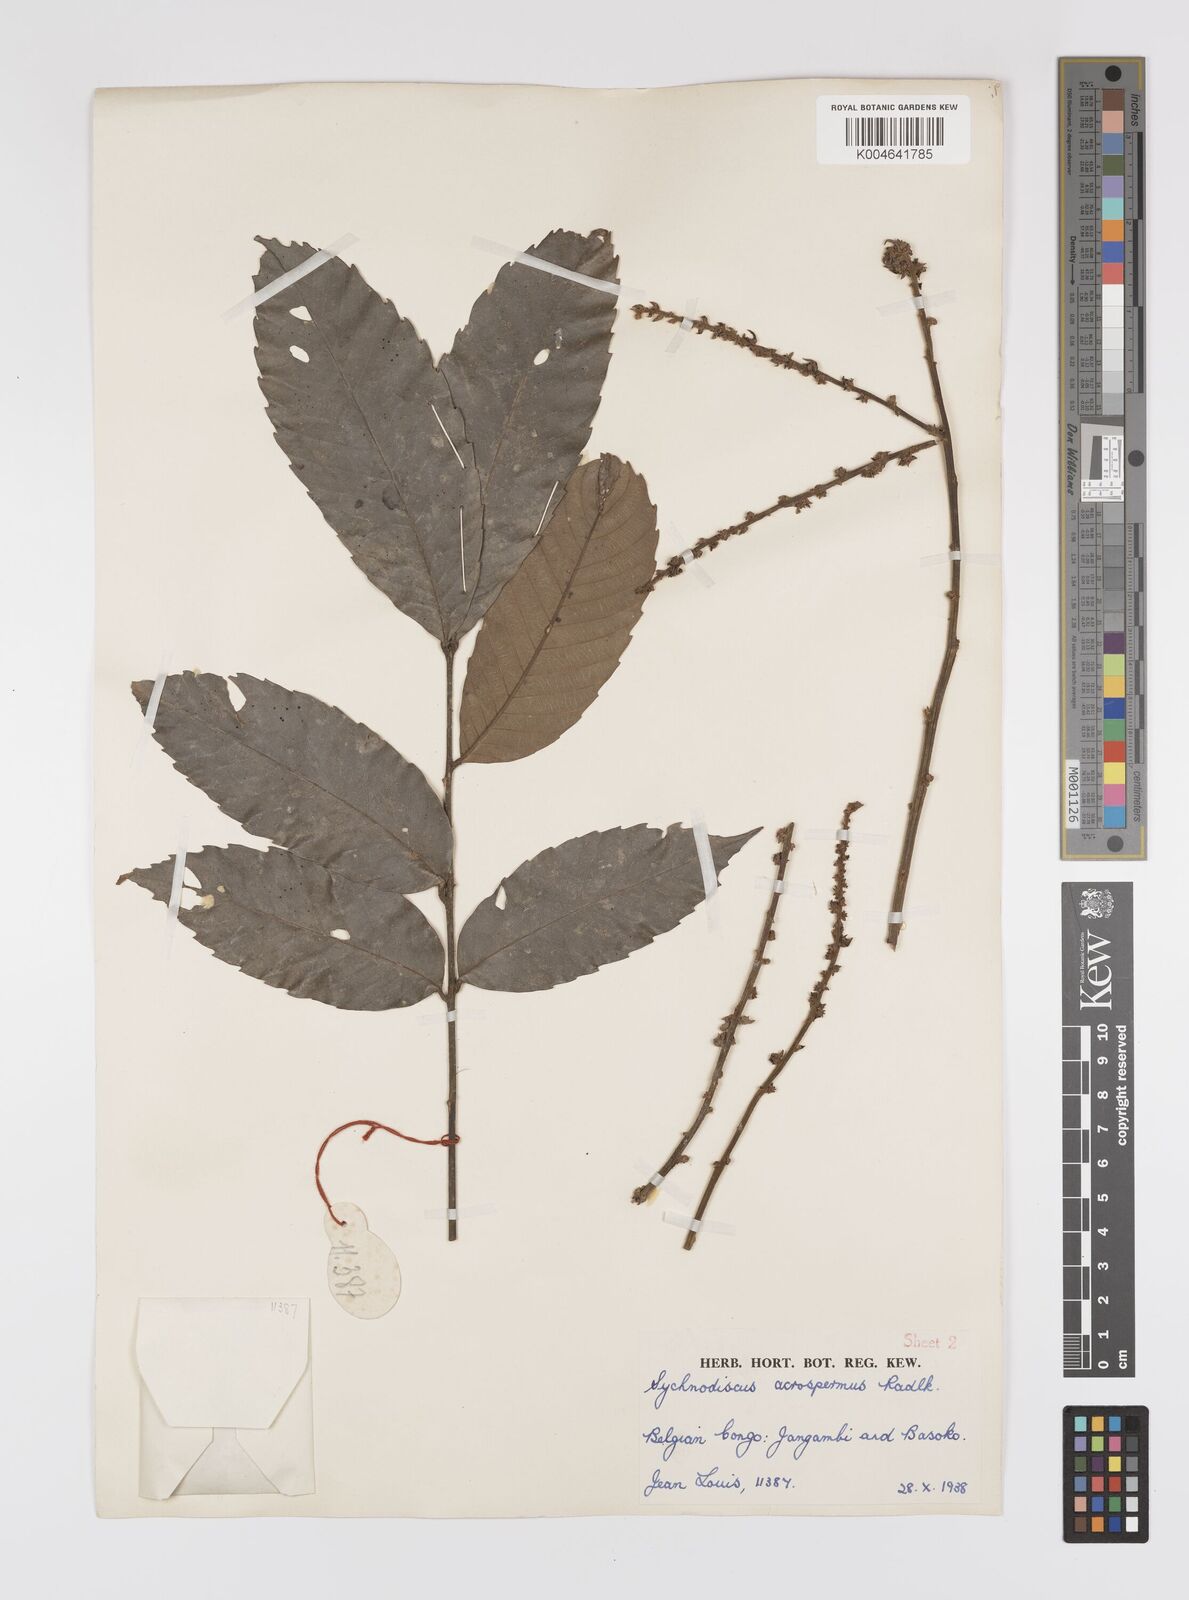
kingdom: Plantae
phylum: Tracheophyta
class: Magnoliopsida
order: Sapindales
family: Sapindaceae
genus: Lychnodiscus
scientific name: Lychnodiscus cerospermus
